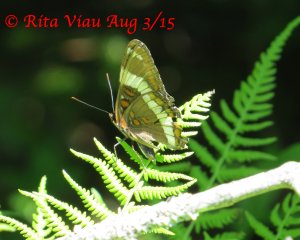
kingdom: Animalia
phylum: Arthropoda
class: Insecta
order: Lepidoptera
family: Nymphalidae
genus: Limenitis
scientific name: Limenitis arthemis
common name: Red-spotted Admiral
